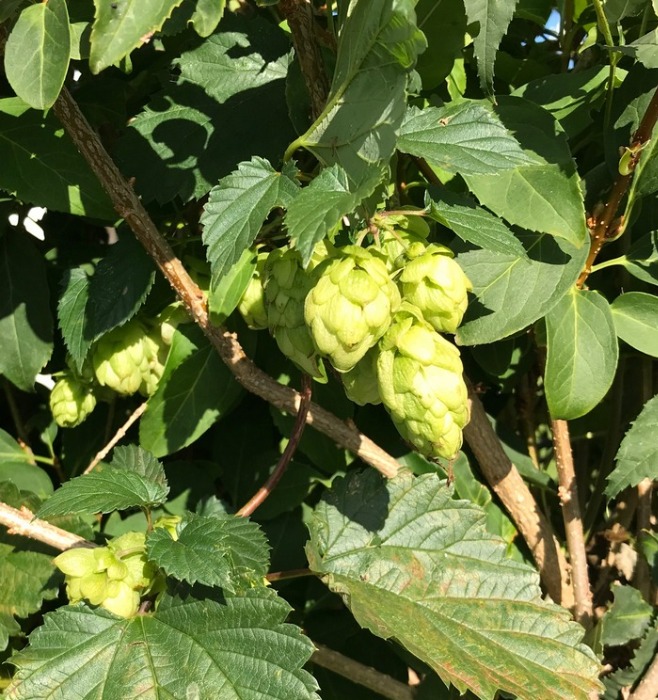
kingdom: Plantae
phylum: Tracheophyta
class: Magnoliopsida
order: Rosales
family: Cannabaceae
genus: Humulus
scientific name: Humulus lupulus
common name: Humle
